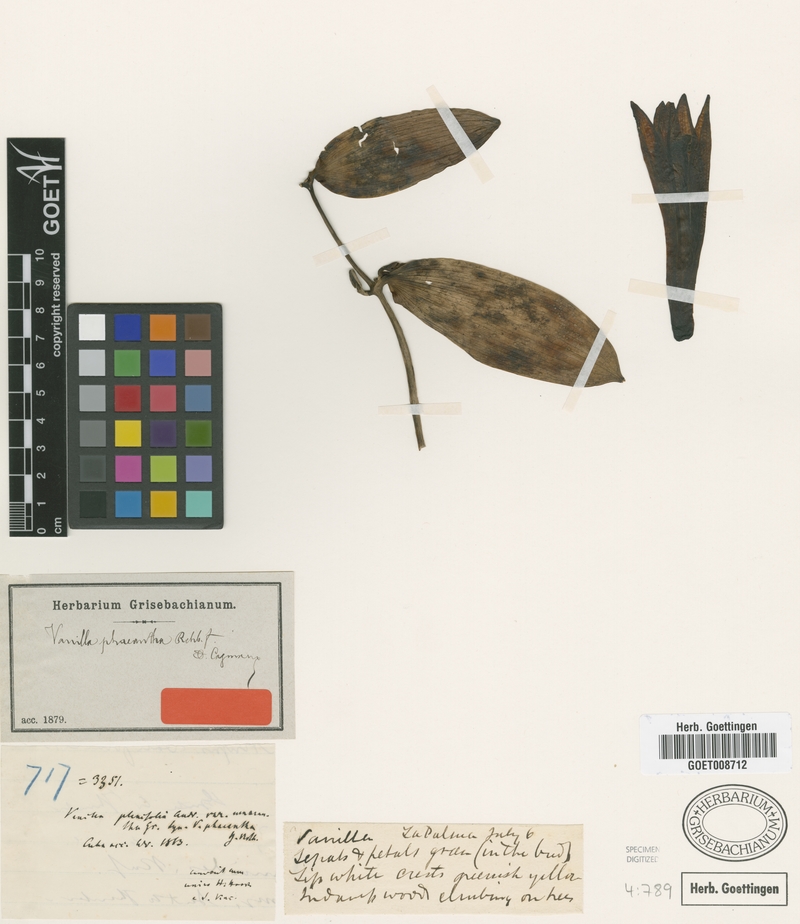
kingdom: Plantae
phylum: Tracheophyta
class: Liliopsida
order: Asparagales
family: Orchidaceae
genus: Vanilla
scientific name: Vanilla phaeantha
